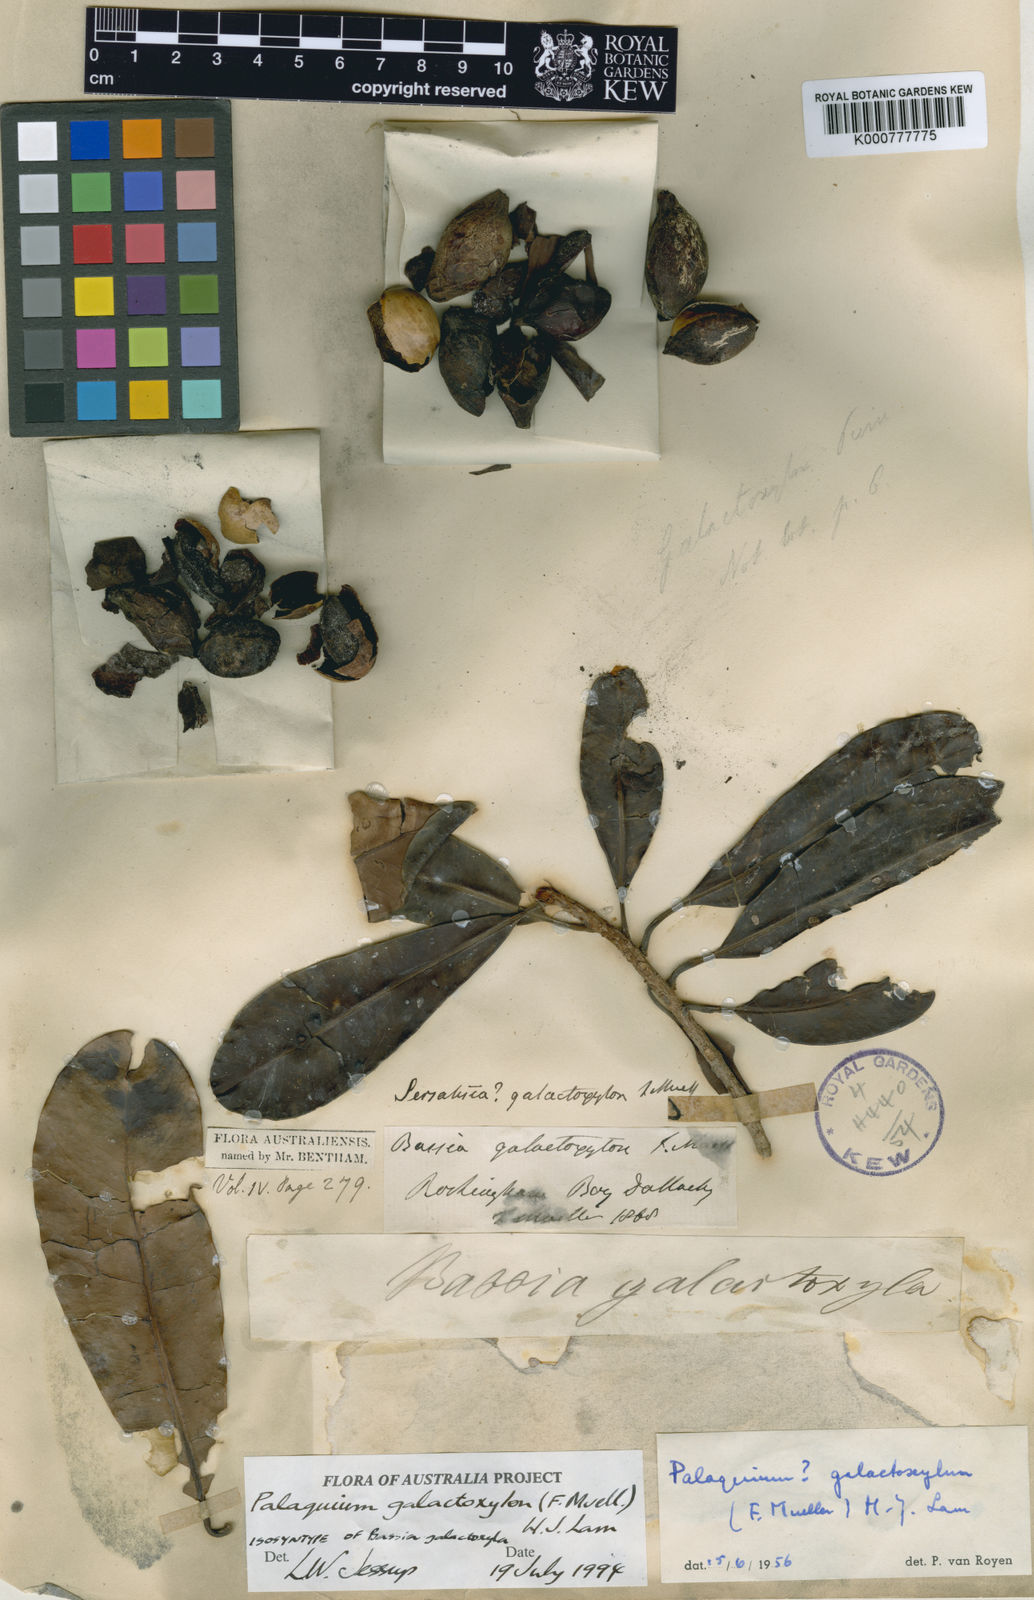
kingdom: Plantae
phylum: Tracheophyta
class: Magnoliopsida
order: Ericales
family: Sapotaceae
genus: Palaquium
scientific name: Palaquium pierrei
